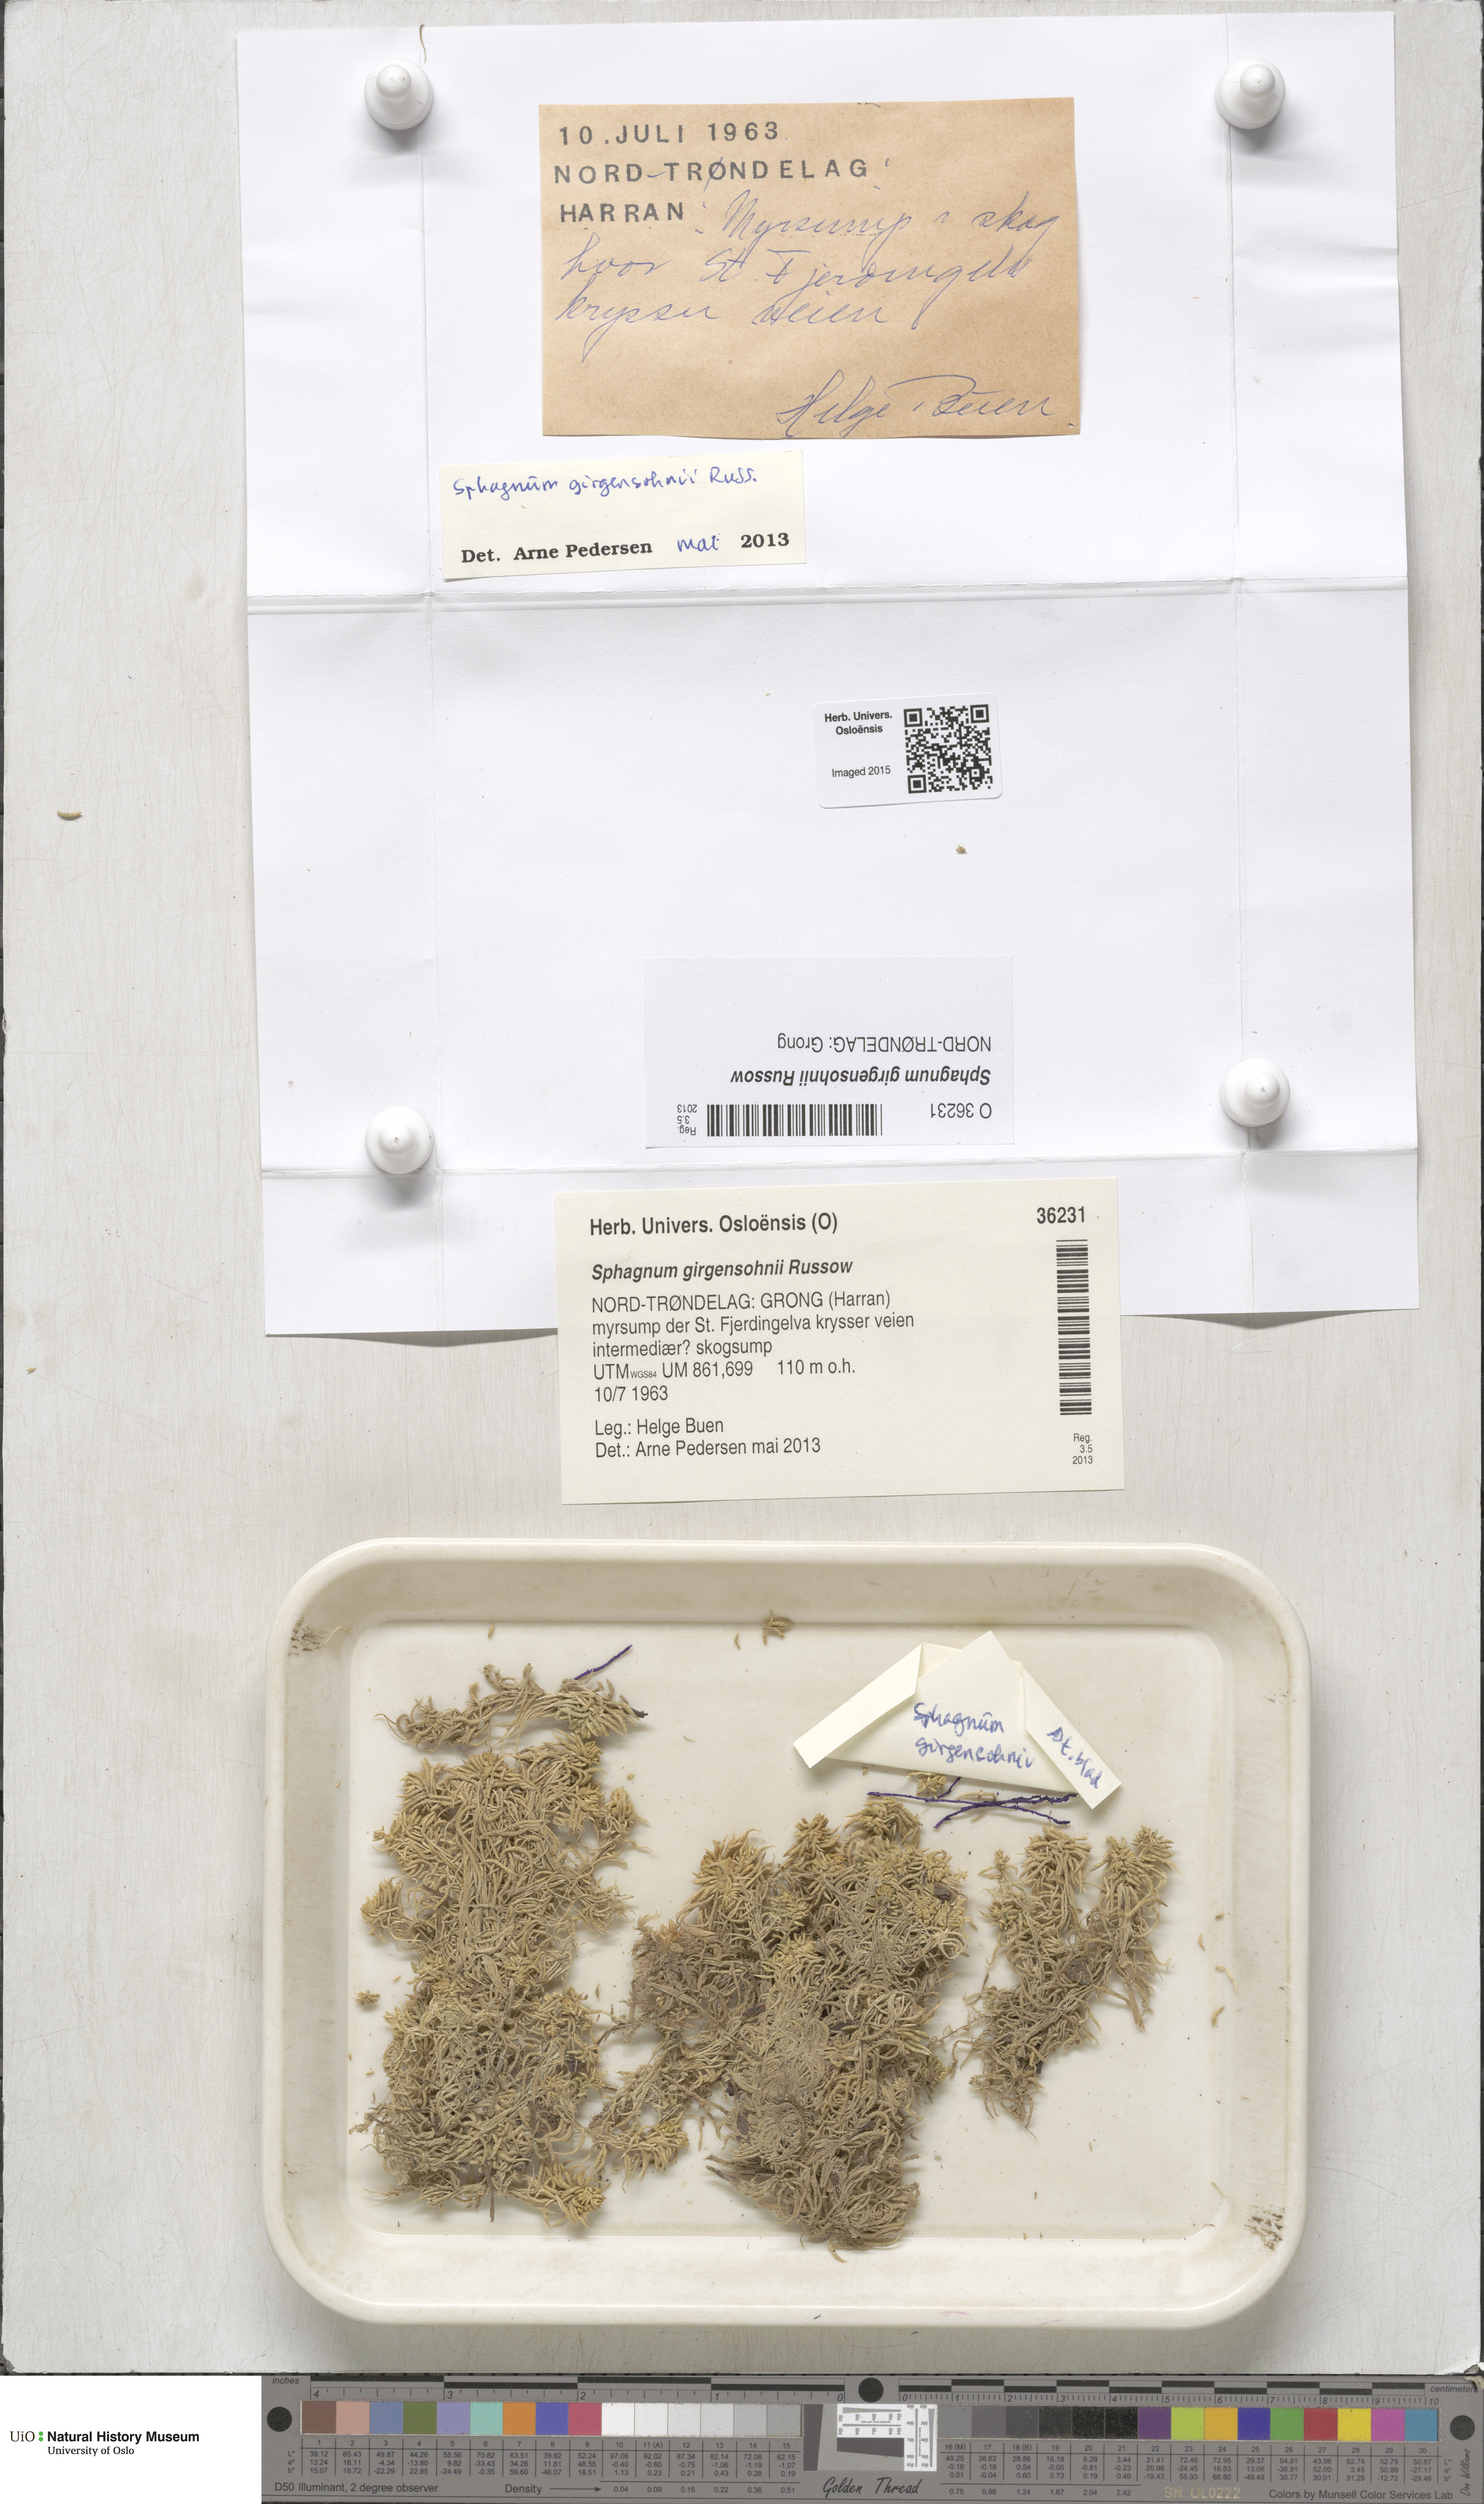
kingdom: Plantae
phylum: Bryophyta
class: Sphagnopsida
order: Sphagnales
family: Sphagnaceae
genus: Sphagnum
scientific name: Sphagnum girgensohnii
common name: Girgensohn's peat moss
